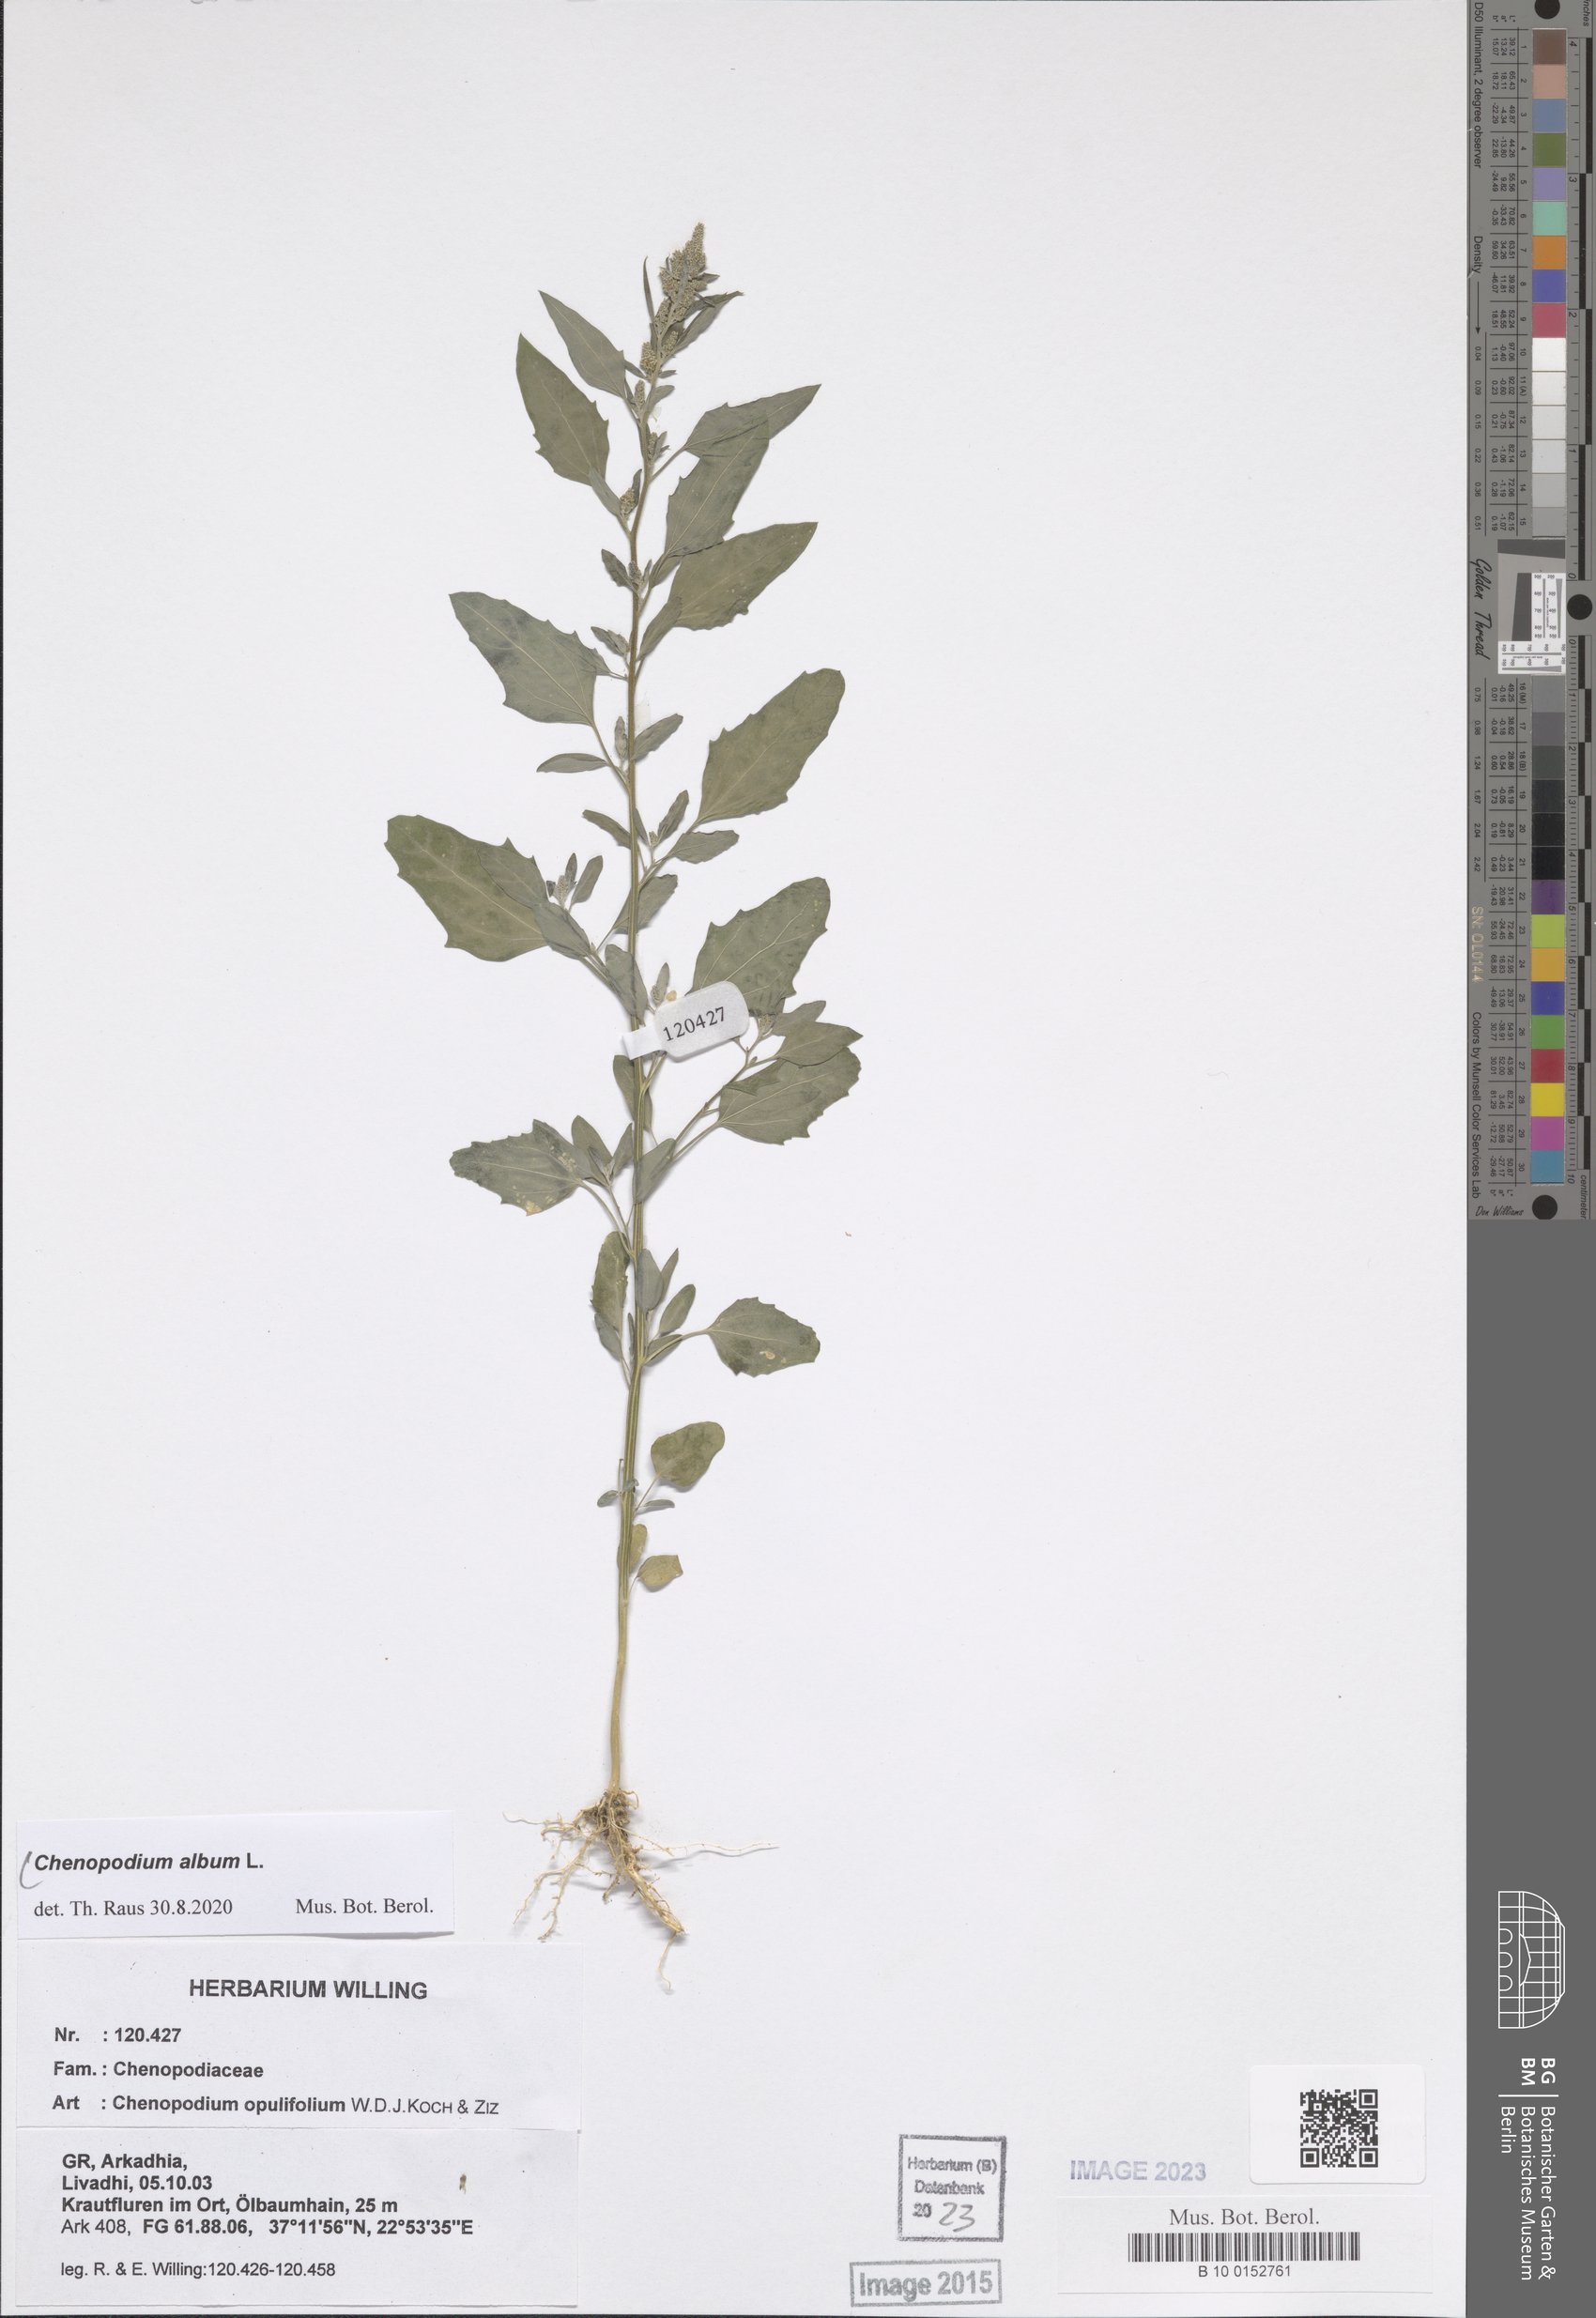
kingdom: Plantae
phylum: Tracheophyta
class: Magnoliopsida
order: Caryophyllales
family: Amaranthaceae
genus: Chenopodium
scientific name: Chenopodium album
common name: Fat-hen
